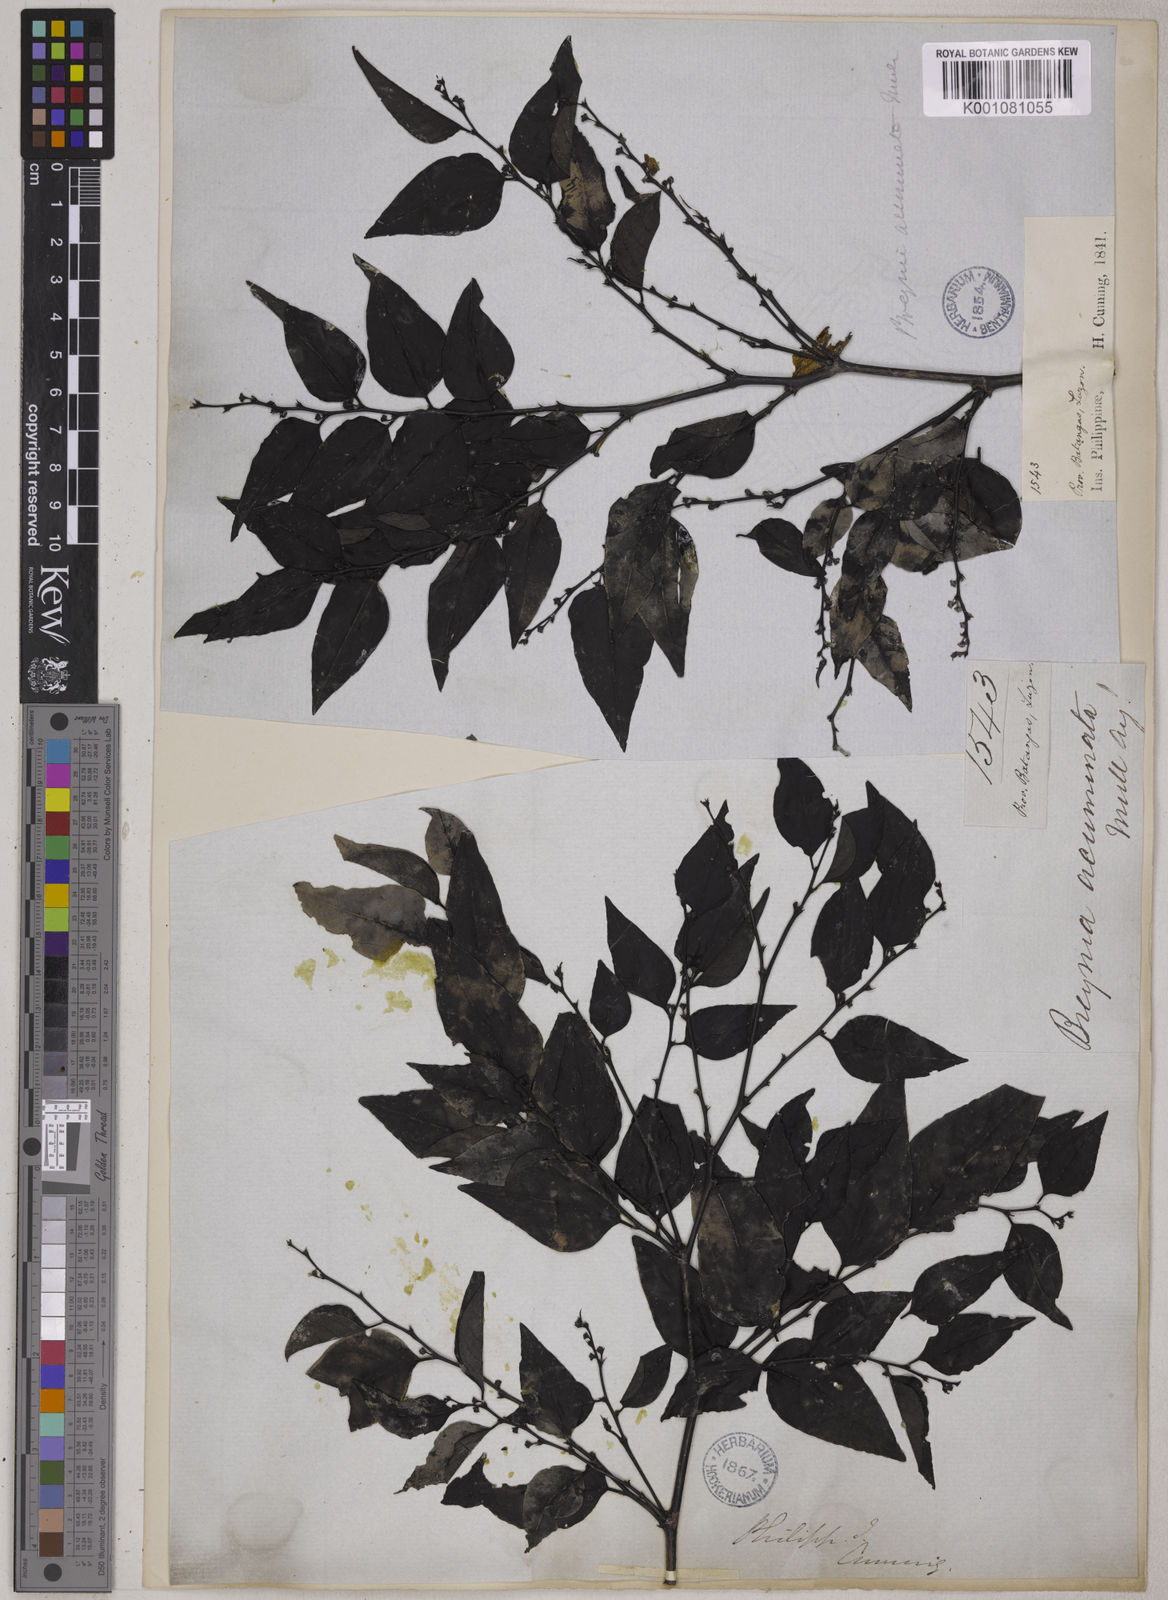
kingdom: Plantae
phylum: Tracheophyta
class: Magnoliopsida
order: Malpighiales
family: Phyllanthaceae
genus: Breynia
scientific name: Breynia
